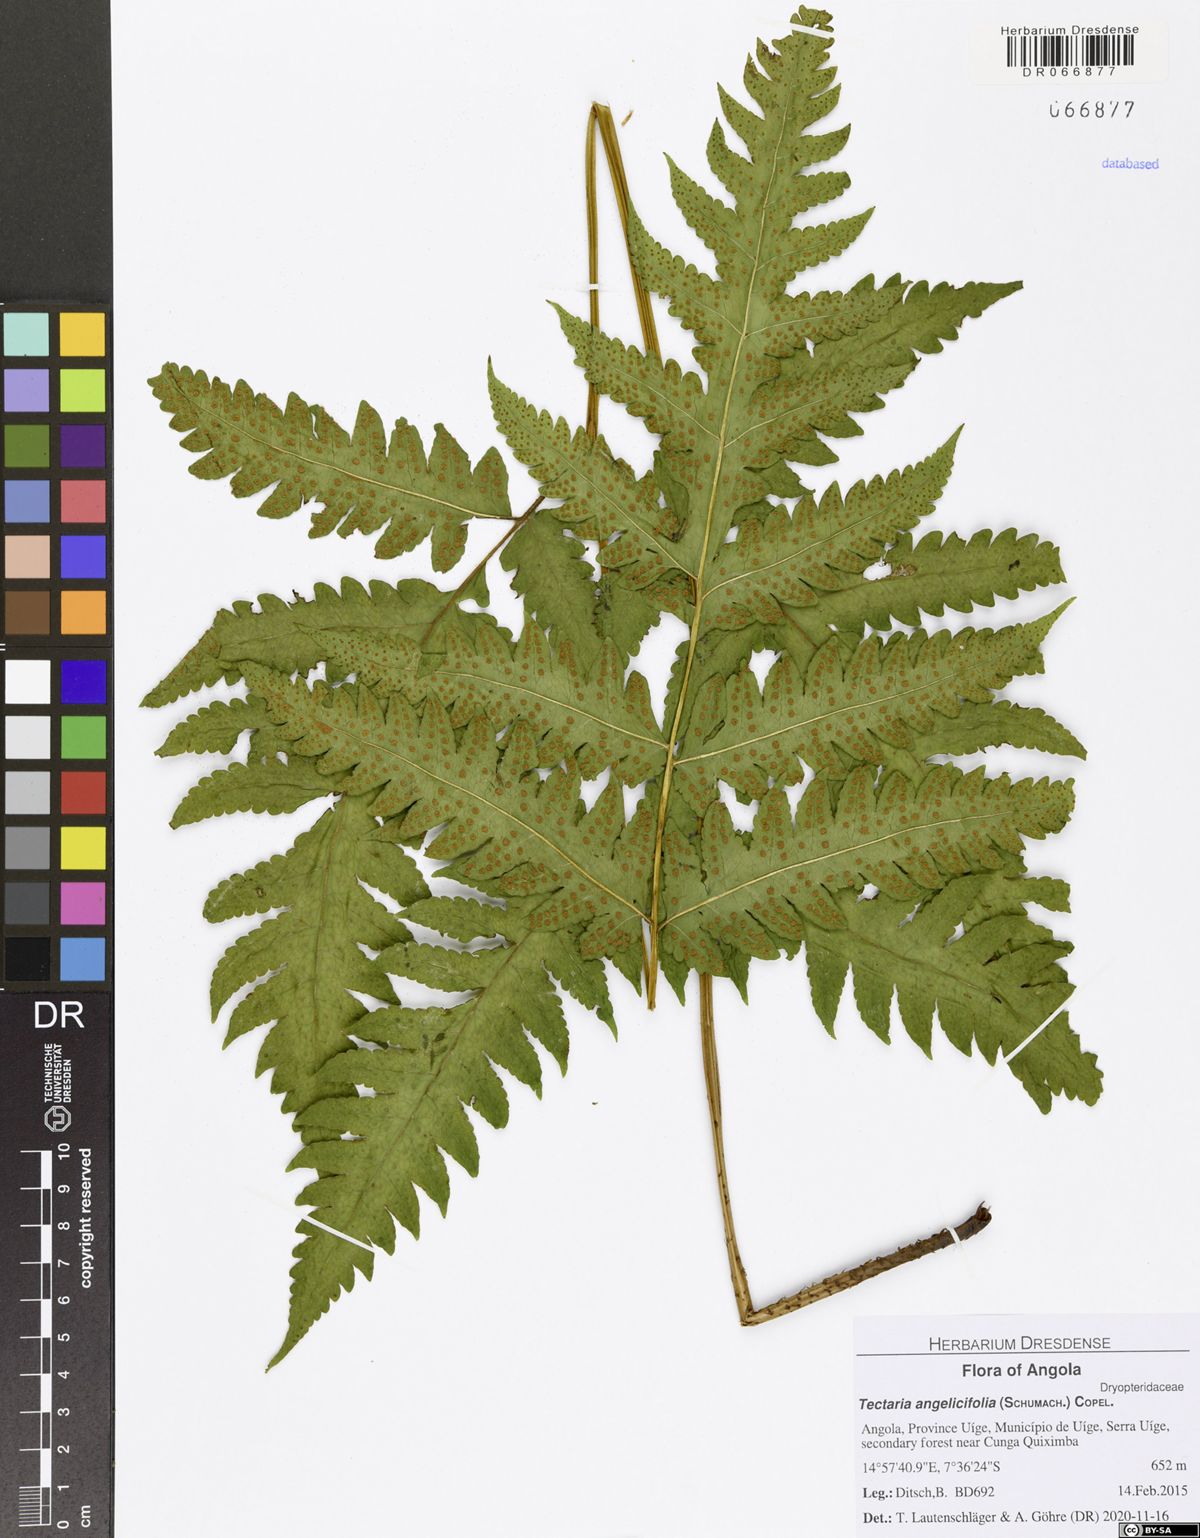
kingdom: Plantae
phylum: Tracheophyta
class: Polypodiopsida
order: Polypodiales
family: Tectariaceae
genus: Tectaria
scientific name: Tectaria angelicifolia
